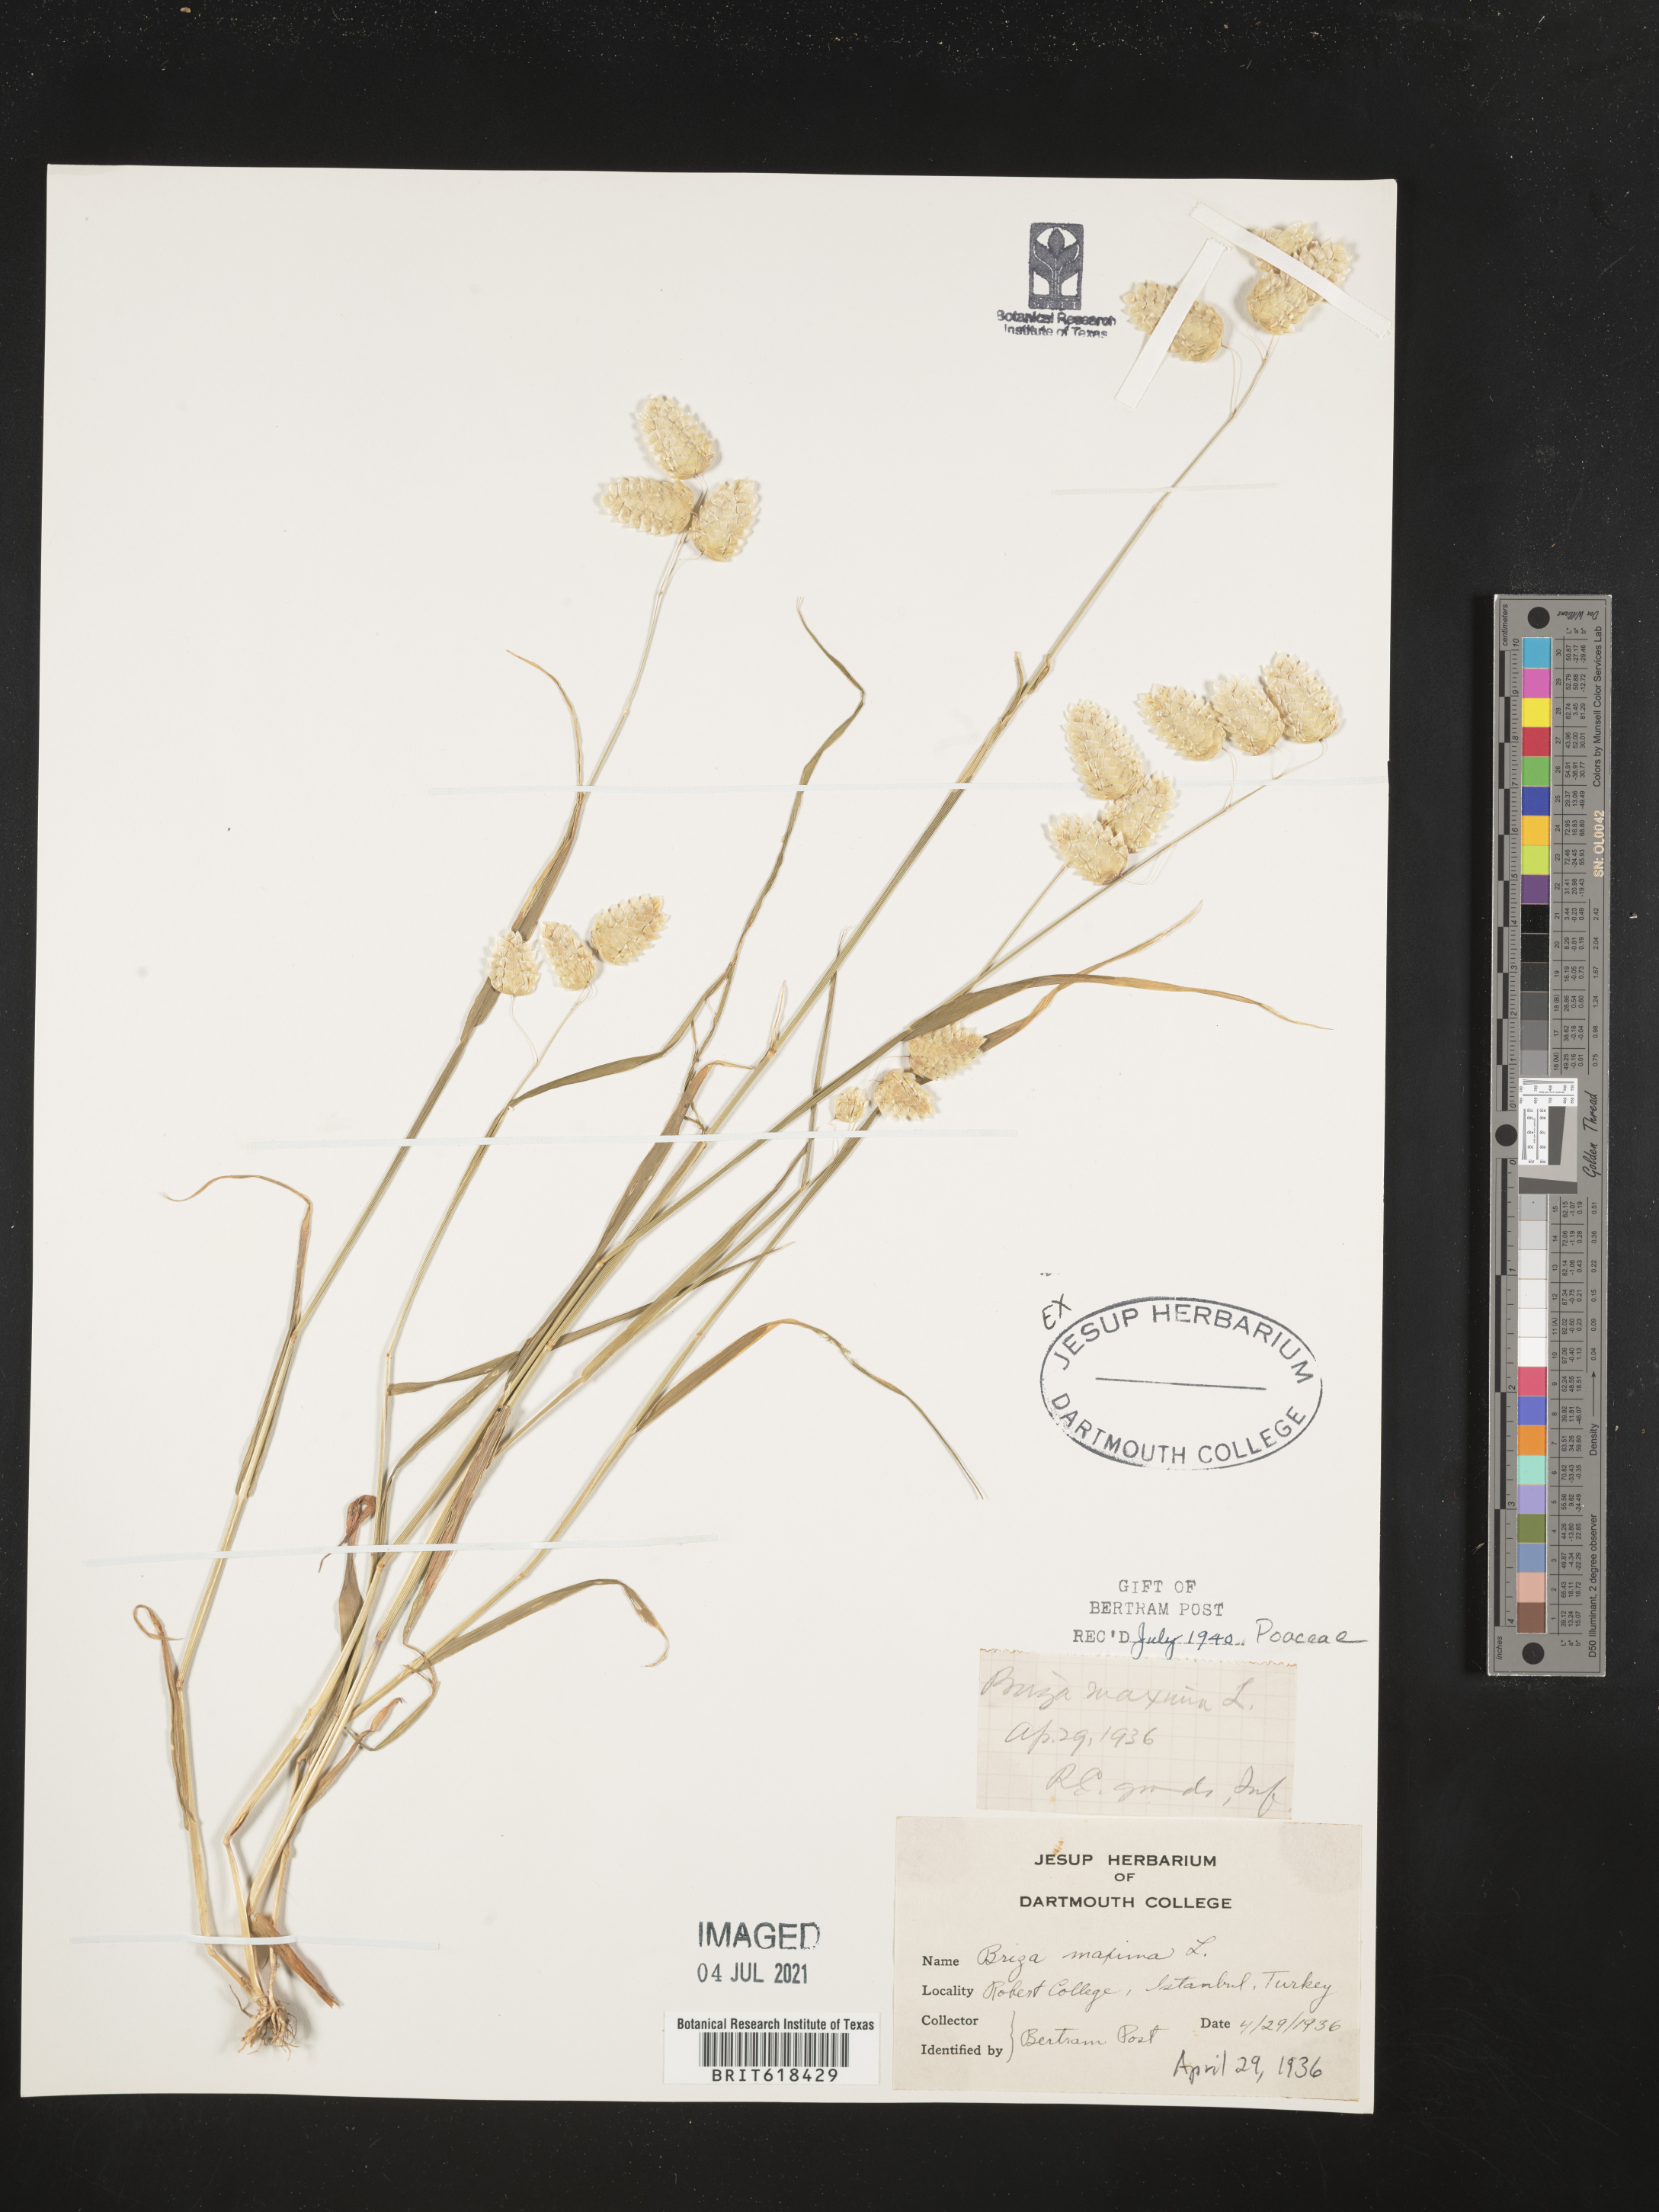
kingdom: Plantae
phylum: Tracheophyta
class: Liliopsida
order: Poales
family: Poaceae
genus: Briza
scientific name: Briza maxima
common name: Big quakinggrass
